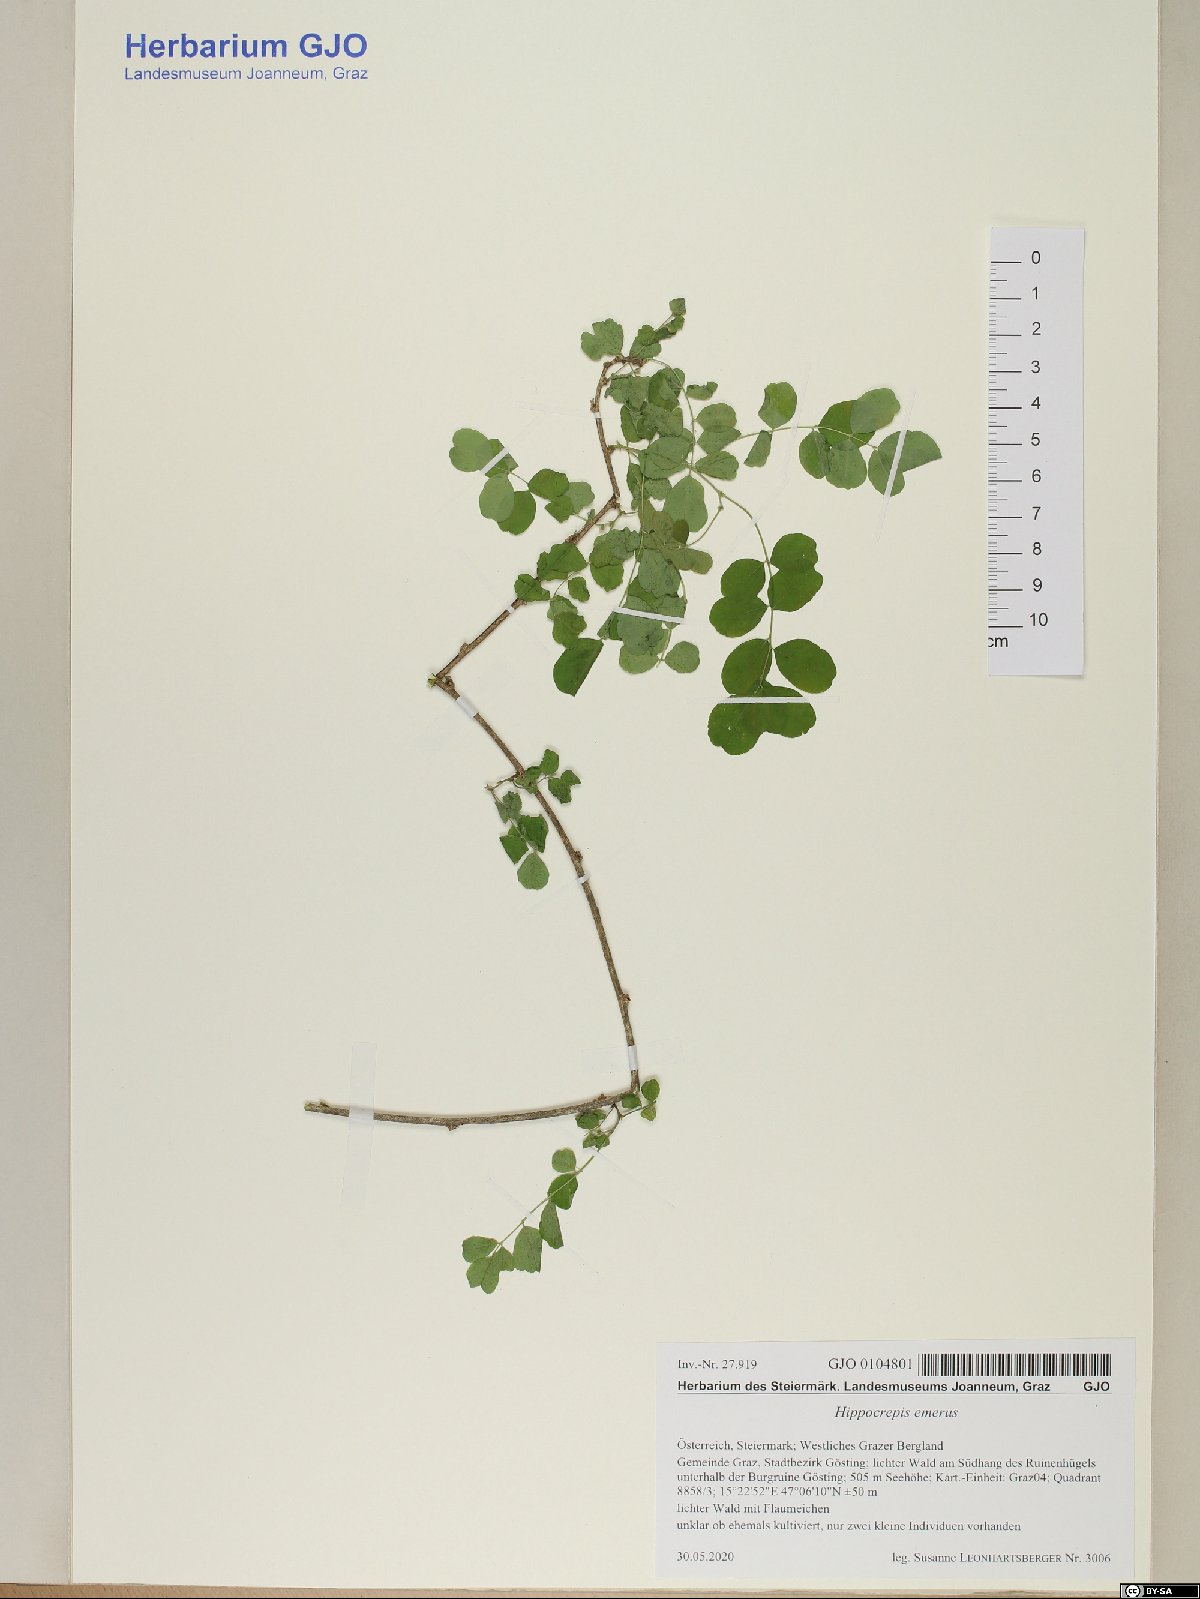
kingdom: Plantae
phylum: Tracheophyta
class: Magnoliopsida
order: Fabales
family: Fabaceae
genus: Hippocrepis
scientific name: Hippocrepis emerus
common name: Scorpion senna
